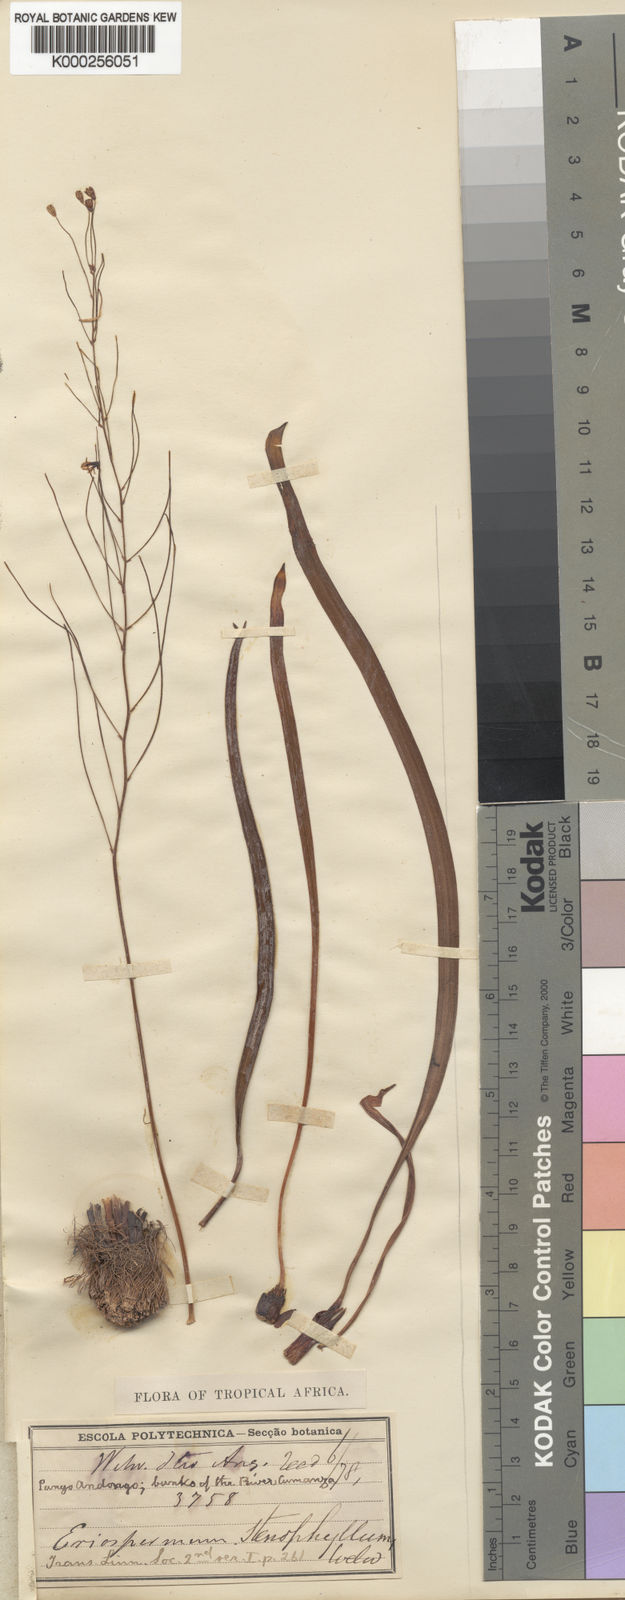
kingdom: Plantae
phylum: Tracheophyta
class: Liliopsida
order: Asparagales
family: Asparagaceae
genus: Eriospermum
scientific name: Eriospermum stenophyllum
